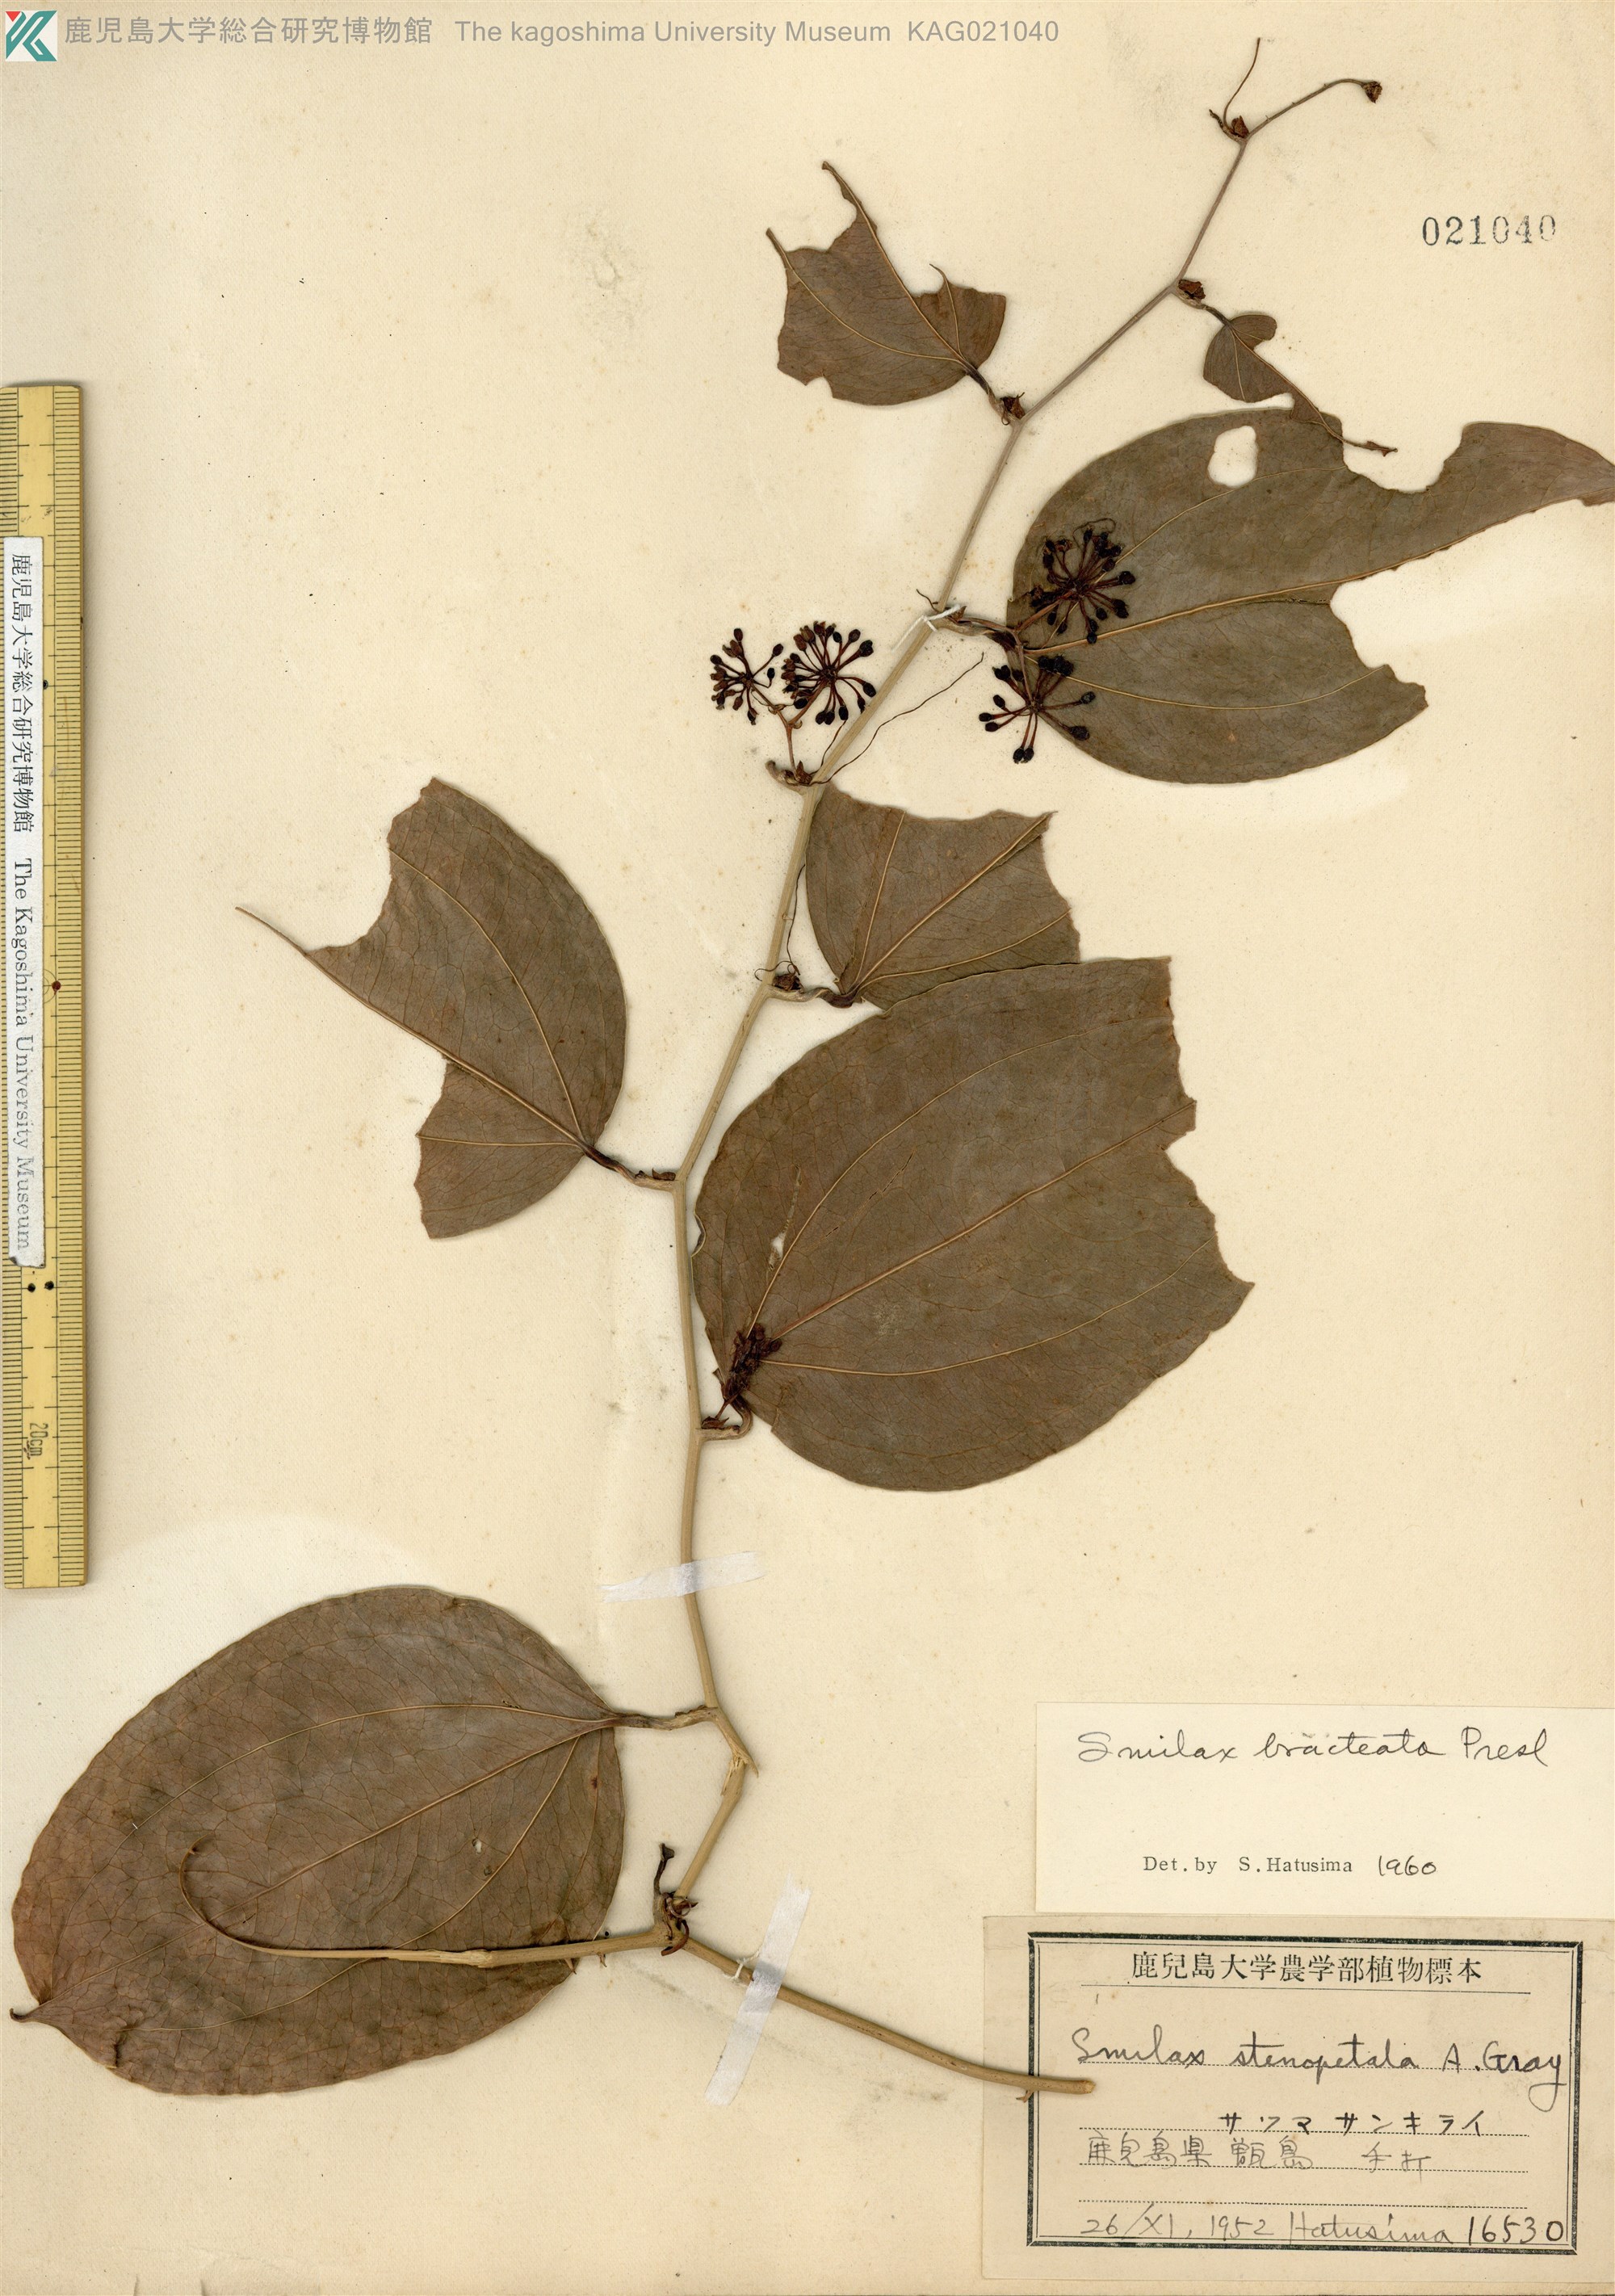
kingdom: Plantae
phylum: Tracheophyta
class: Liliopsida
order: Liliales
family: Smilacaceae
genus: Smilax
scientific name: Smilax bracteata
